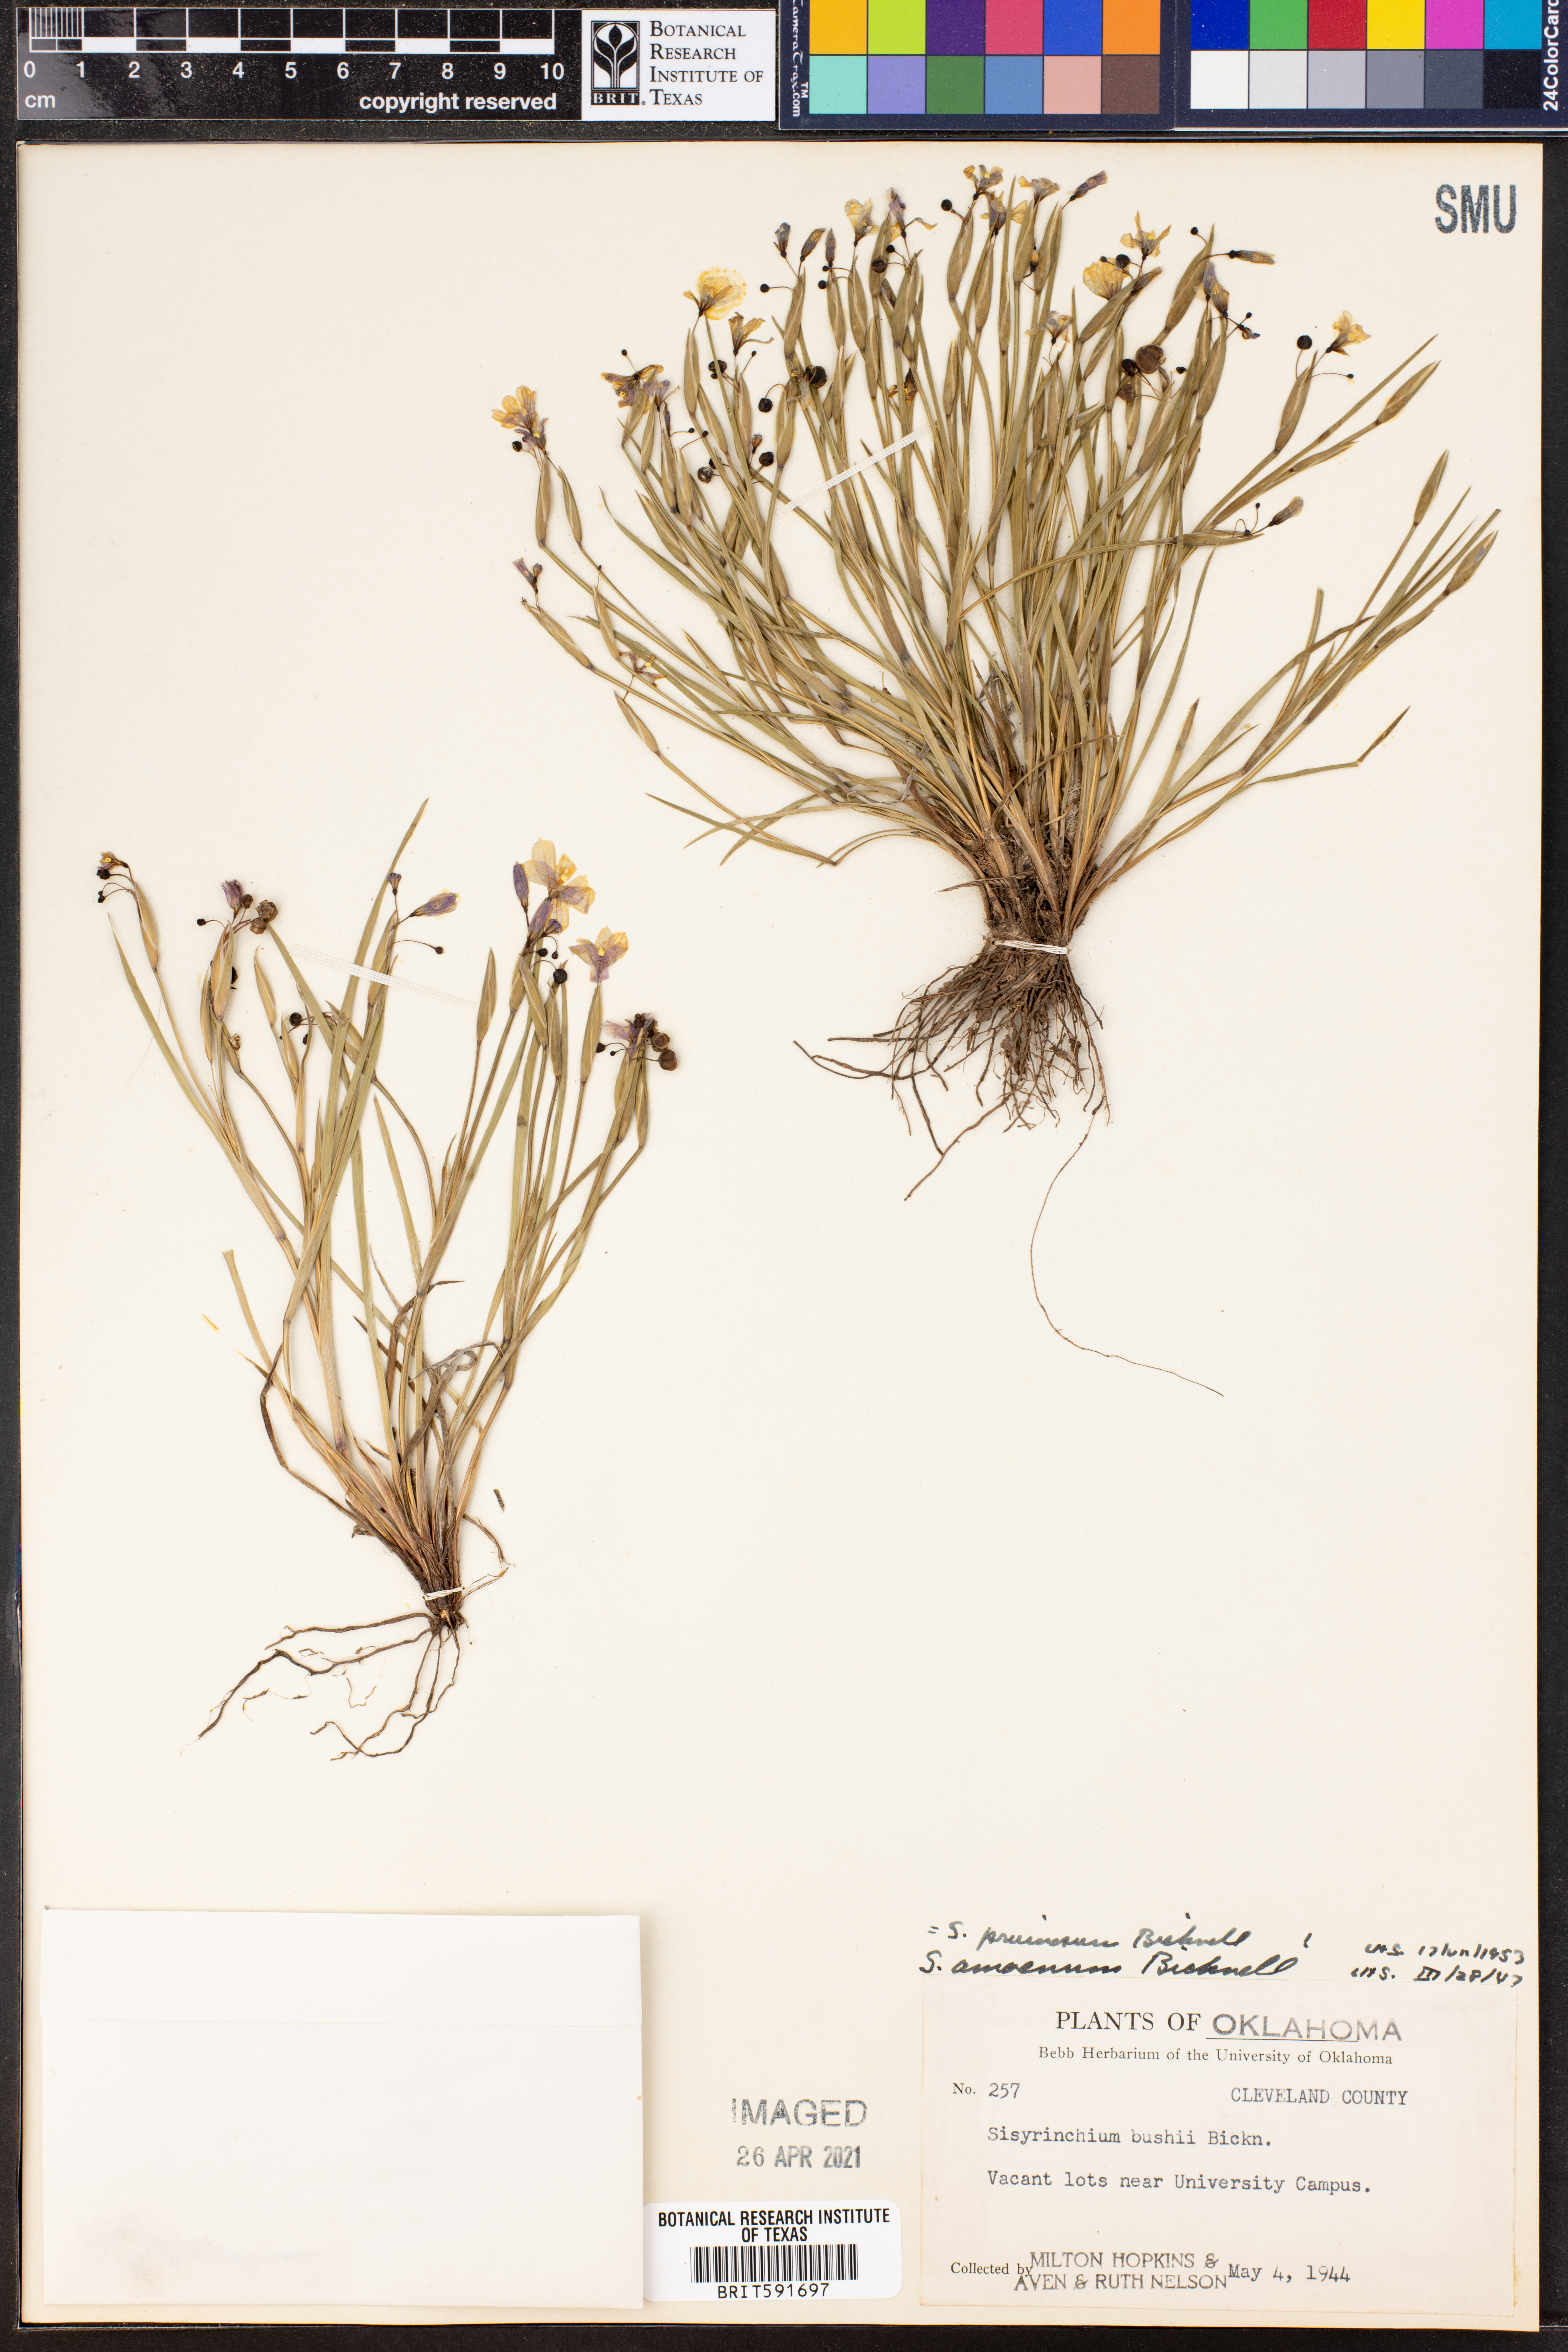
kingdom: Plantae
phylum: Tracheophyta
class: Liliopsida
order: Asparagales
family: Iridaceae
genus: Sisyrinchium
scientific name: Sisyrinchium pruinosum
